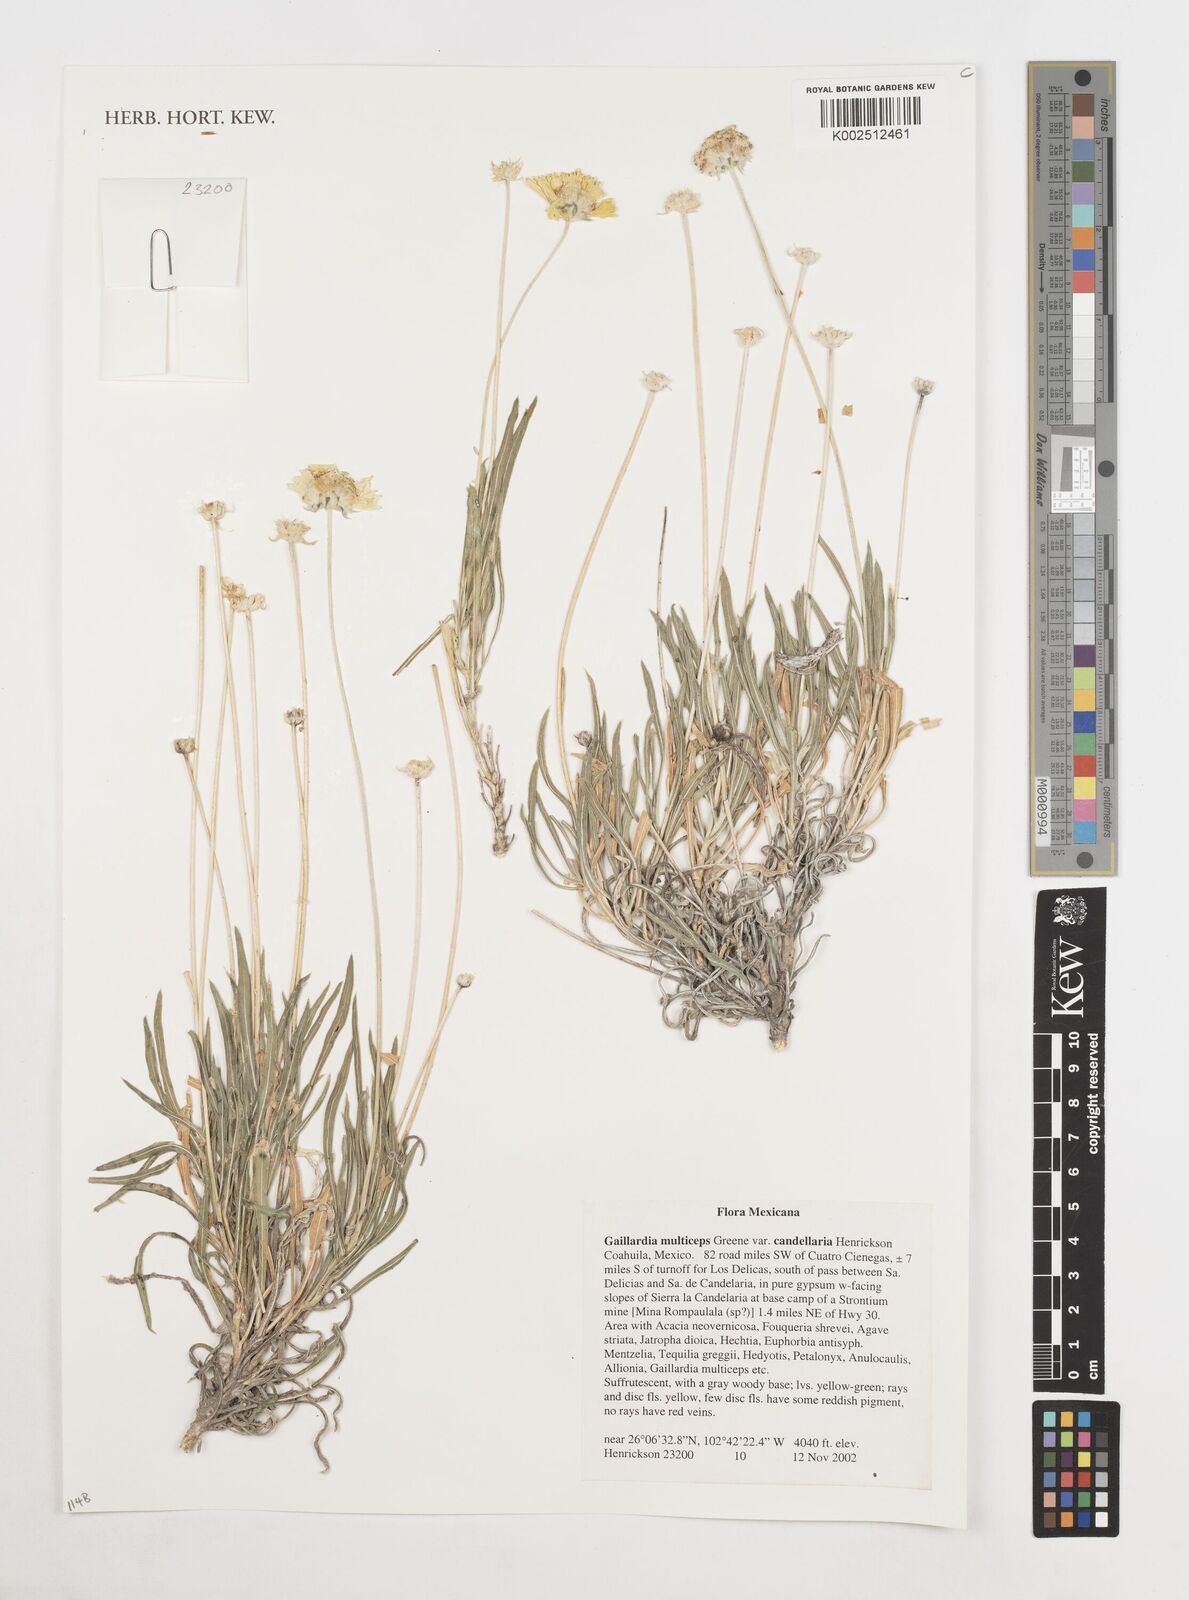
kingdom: Plantae
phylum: Tracheophyta
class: Magnoliopsida
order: Asterales
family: Asteraceae
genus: Gaillardia
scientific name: Gaillardia multiceps
